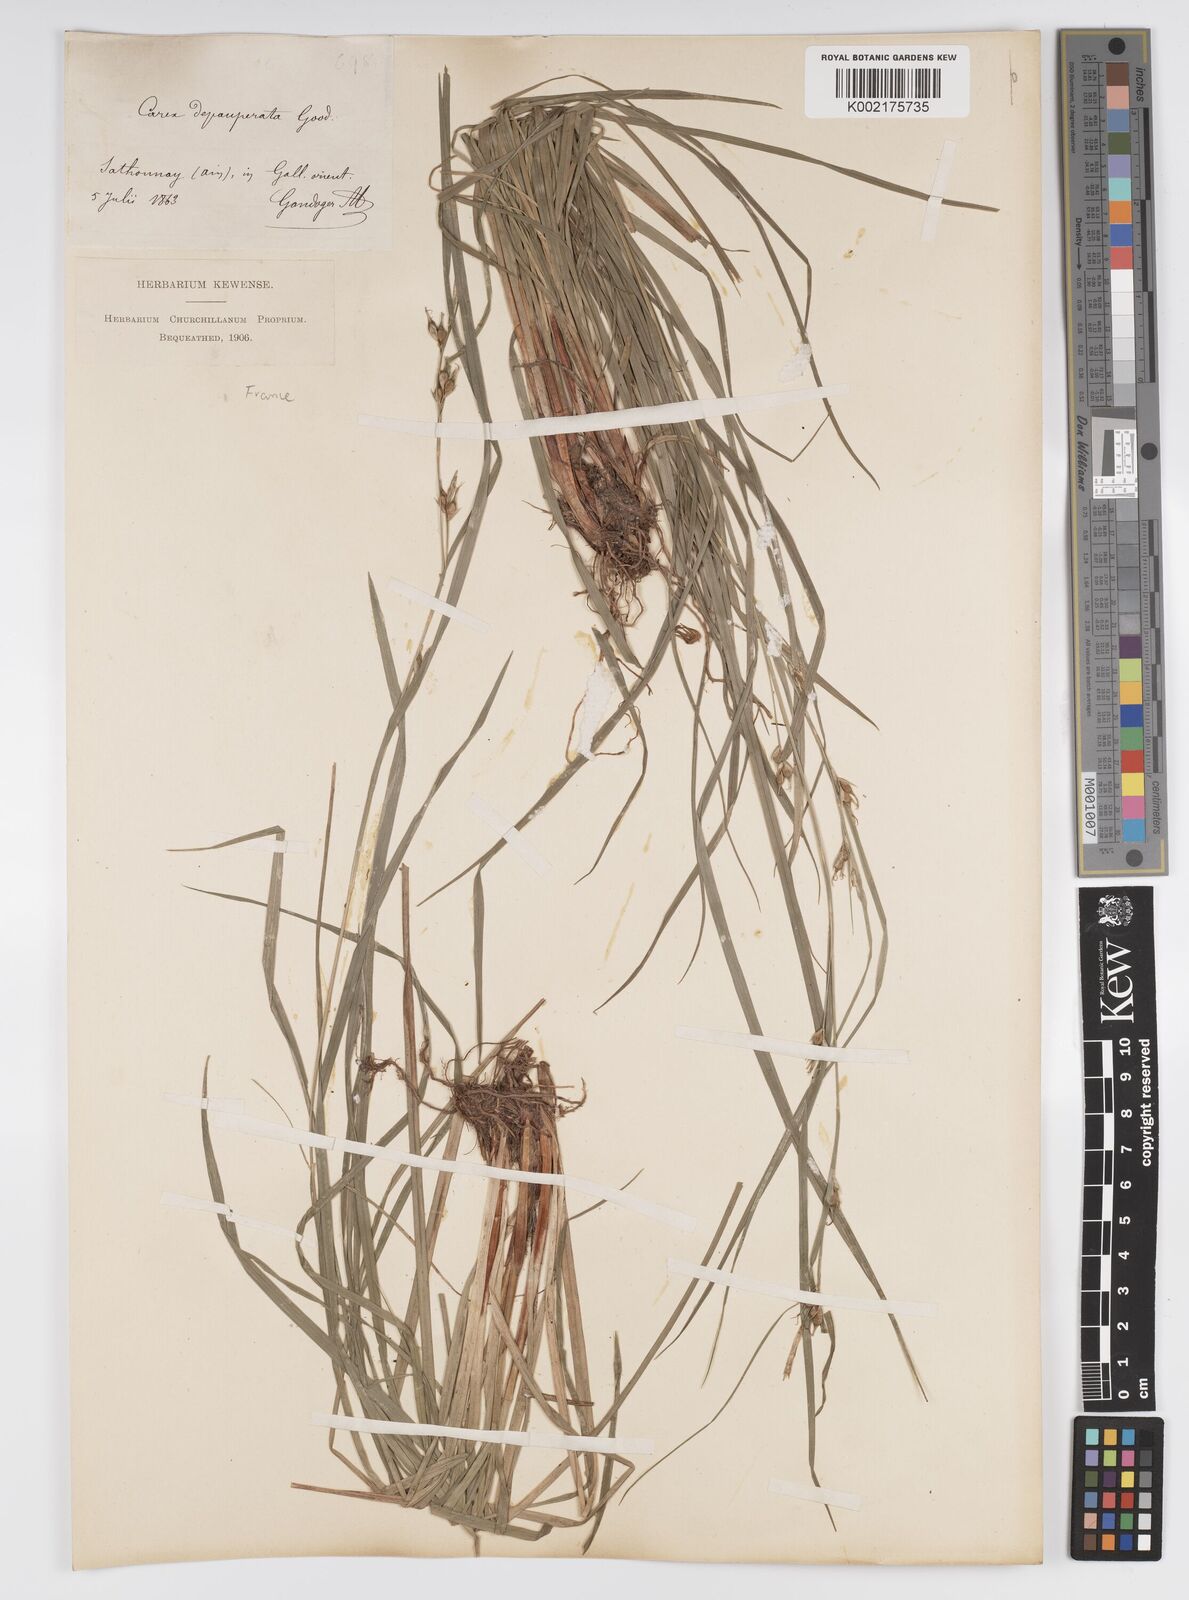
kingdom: Plantae
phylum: Tracheophyta
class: Liliopsida
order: Poales
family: Cyperaceae
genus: Carex
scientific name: Carex
